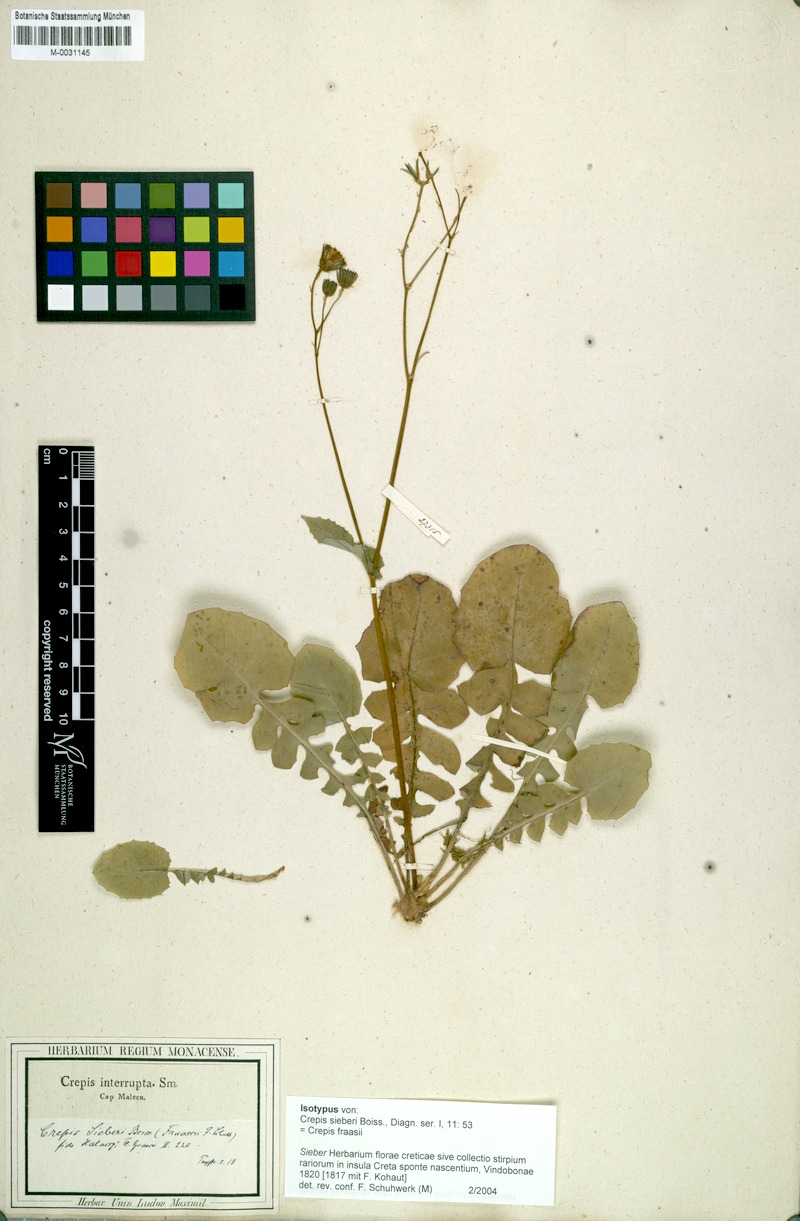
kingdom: Plantae
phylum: Tracheophyta
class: Magnoliopsida
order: Asterales
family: Asteraceae
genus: Crepis
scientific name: Crepis fraasii
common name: Hawk's-beard
